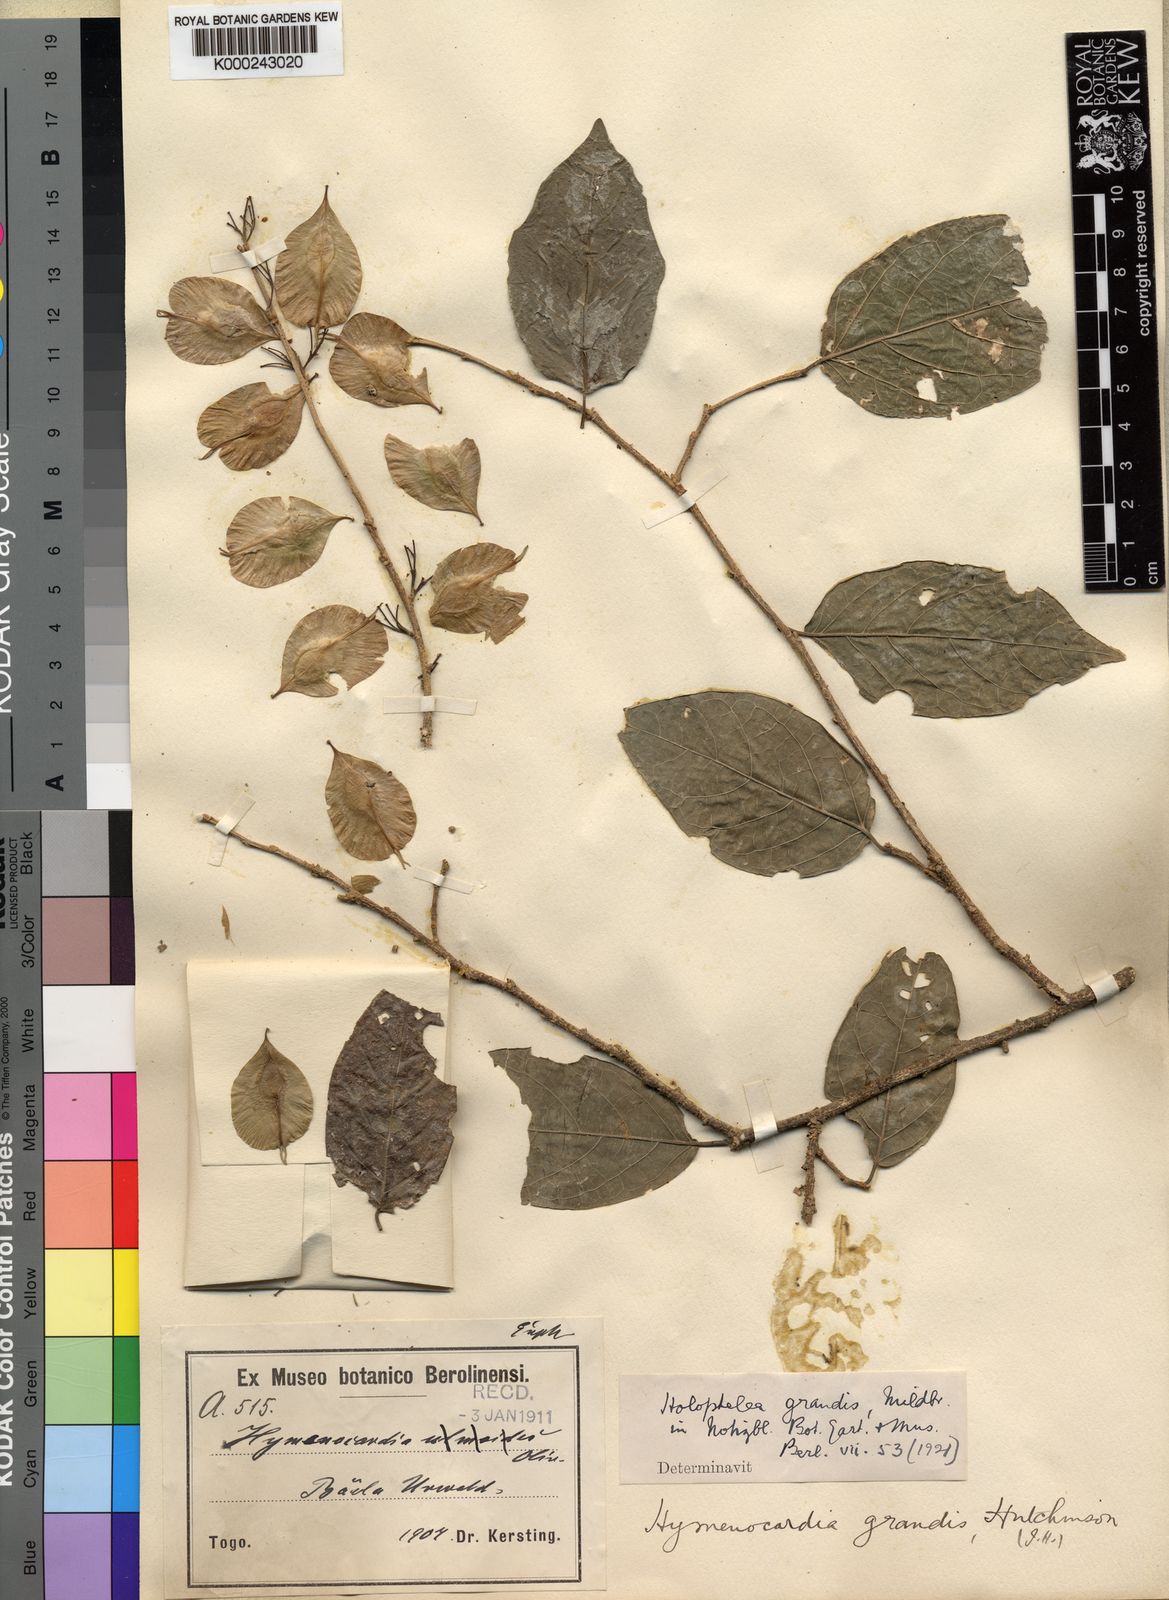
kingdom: Plantae
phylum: Tracheophyta
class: Magnoliopsida
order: Rosales
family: Ulmaceae
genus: Holoptelea
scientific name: Holoptelea grandis
